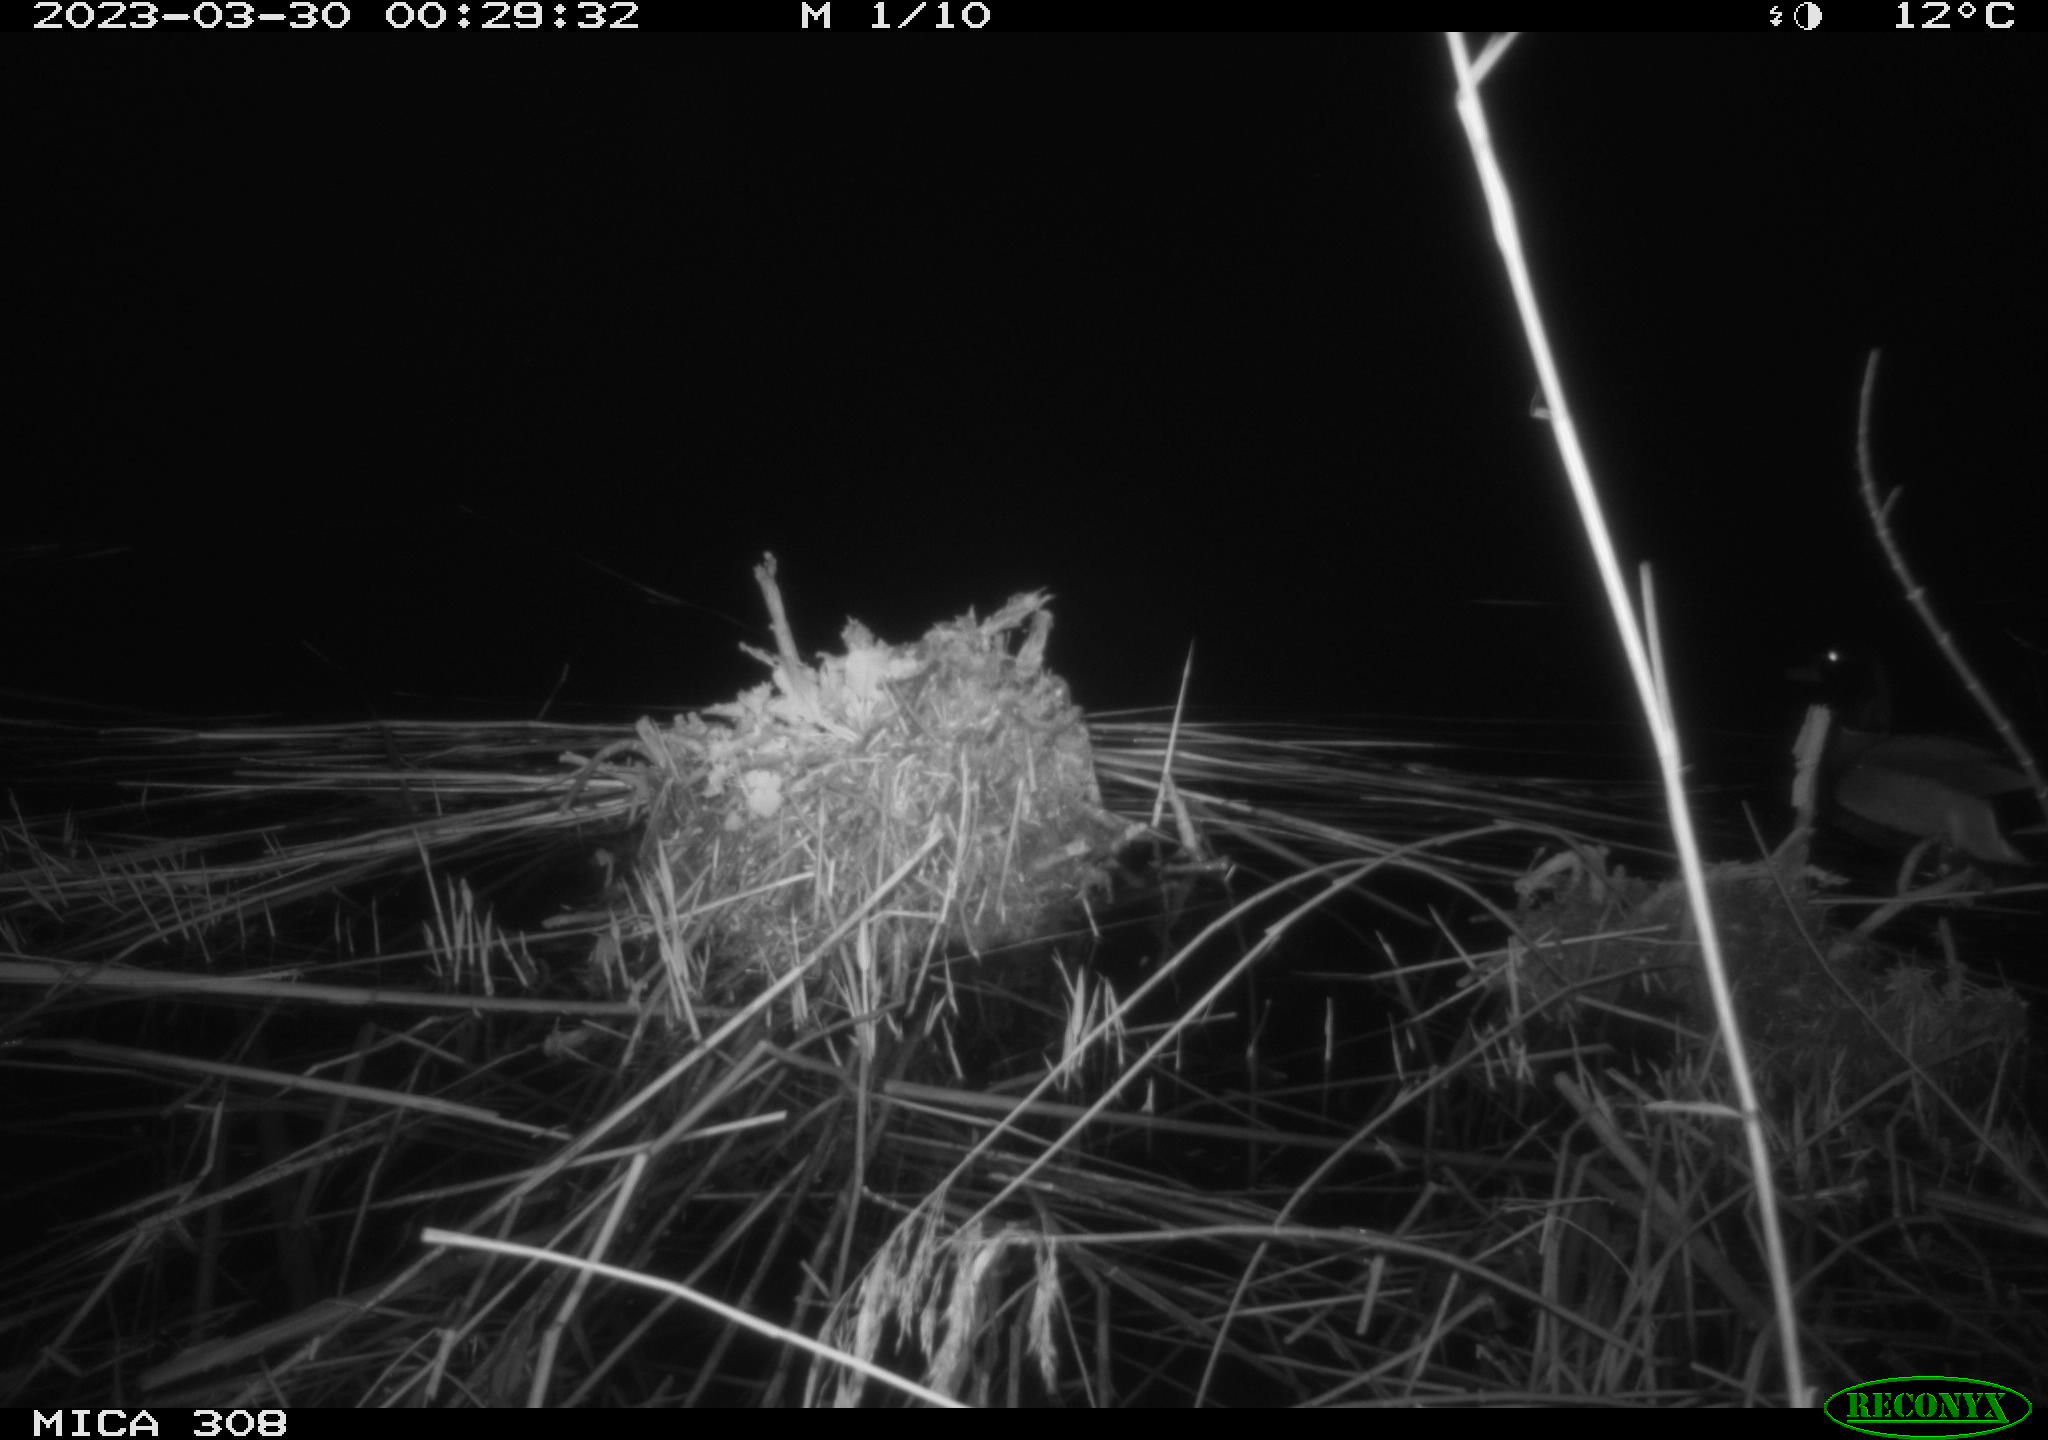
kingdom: Animalia
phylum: Chordata
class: Aves
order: Anseriformes
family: Anatidae
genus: Anas
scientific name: Anas
